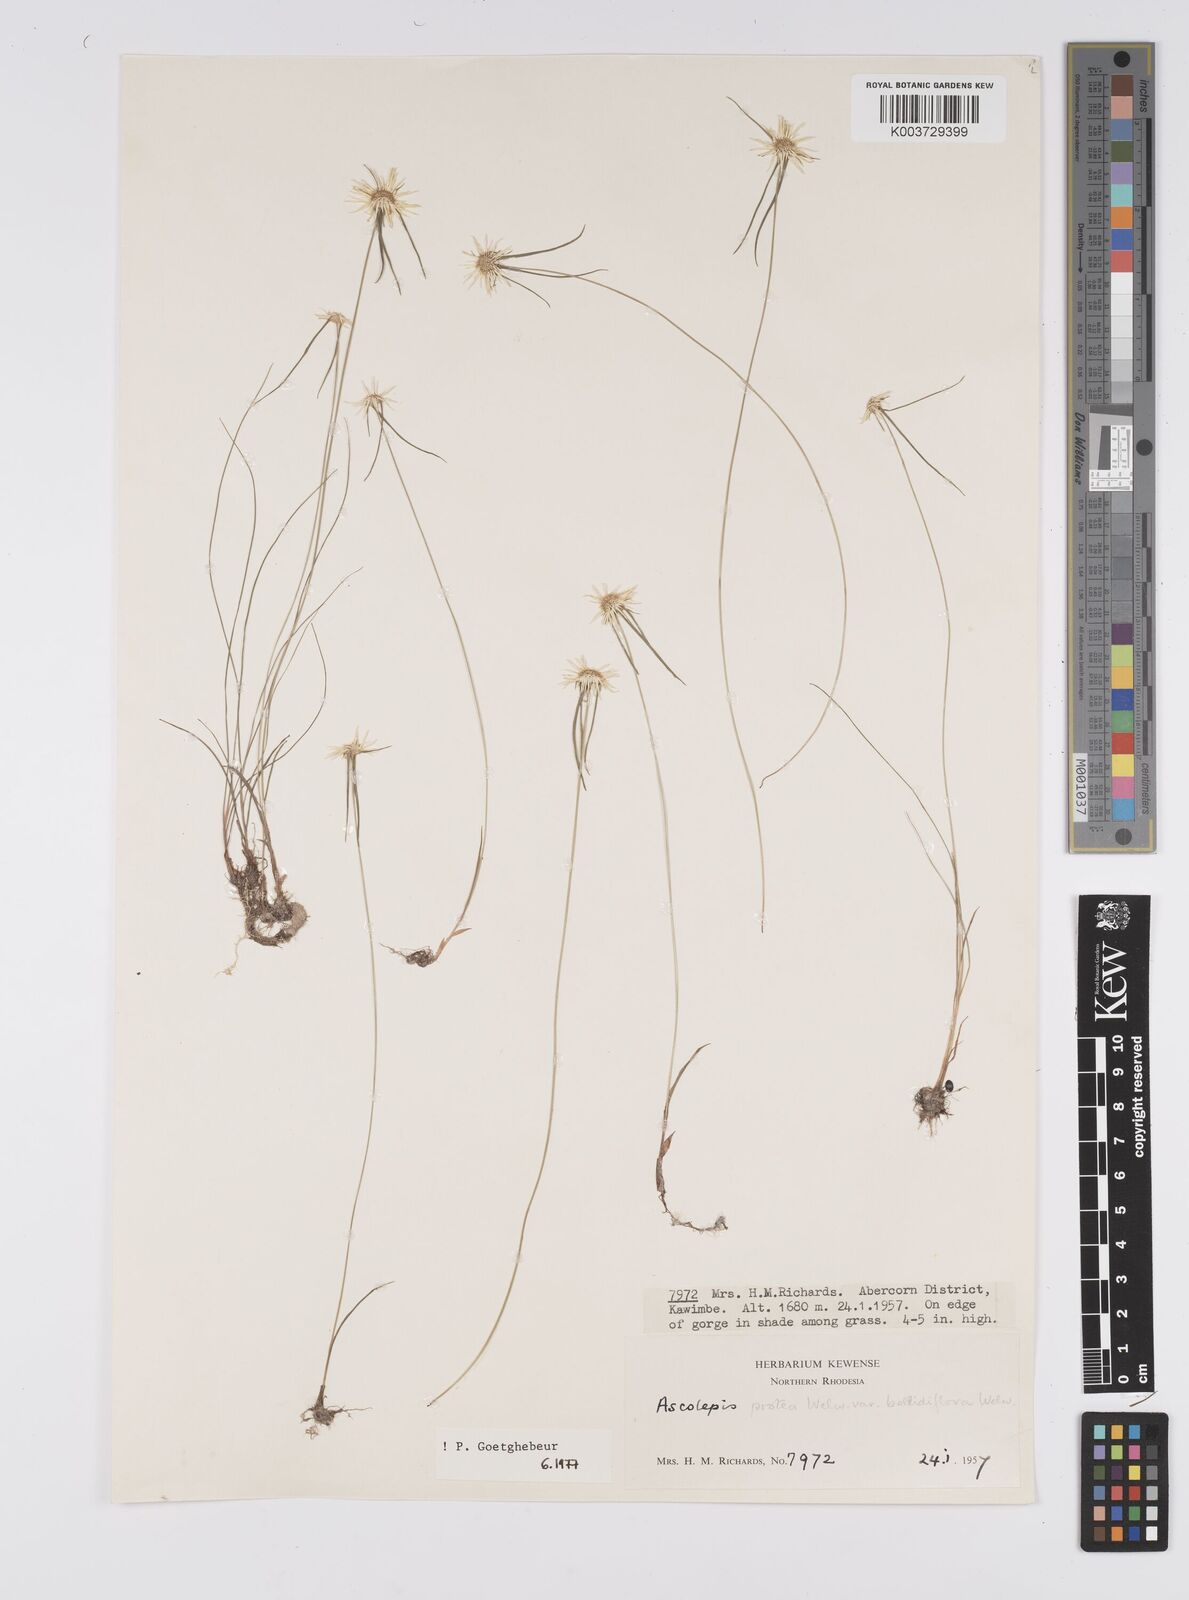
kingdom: Plantae
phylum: Tracheophyta
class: Liliopsida
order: Poales
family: Cyperaceae
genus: Cyperus
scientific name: Cyperus proteus
